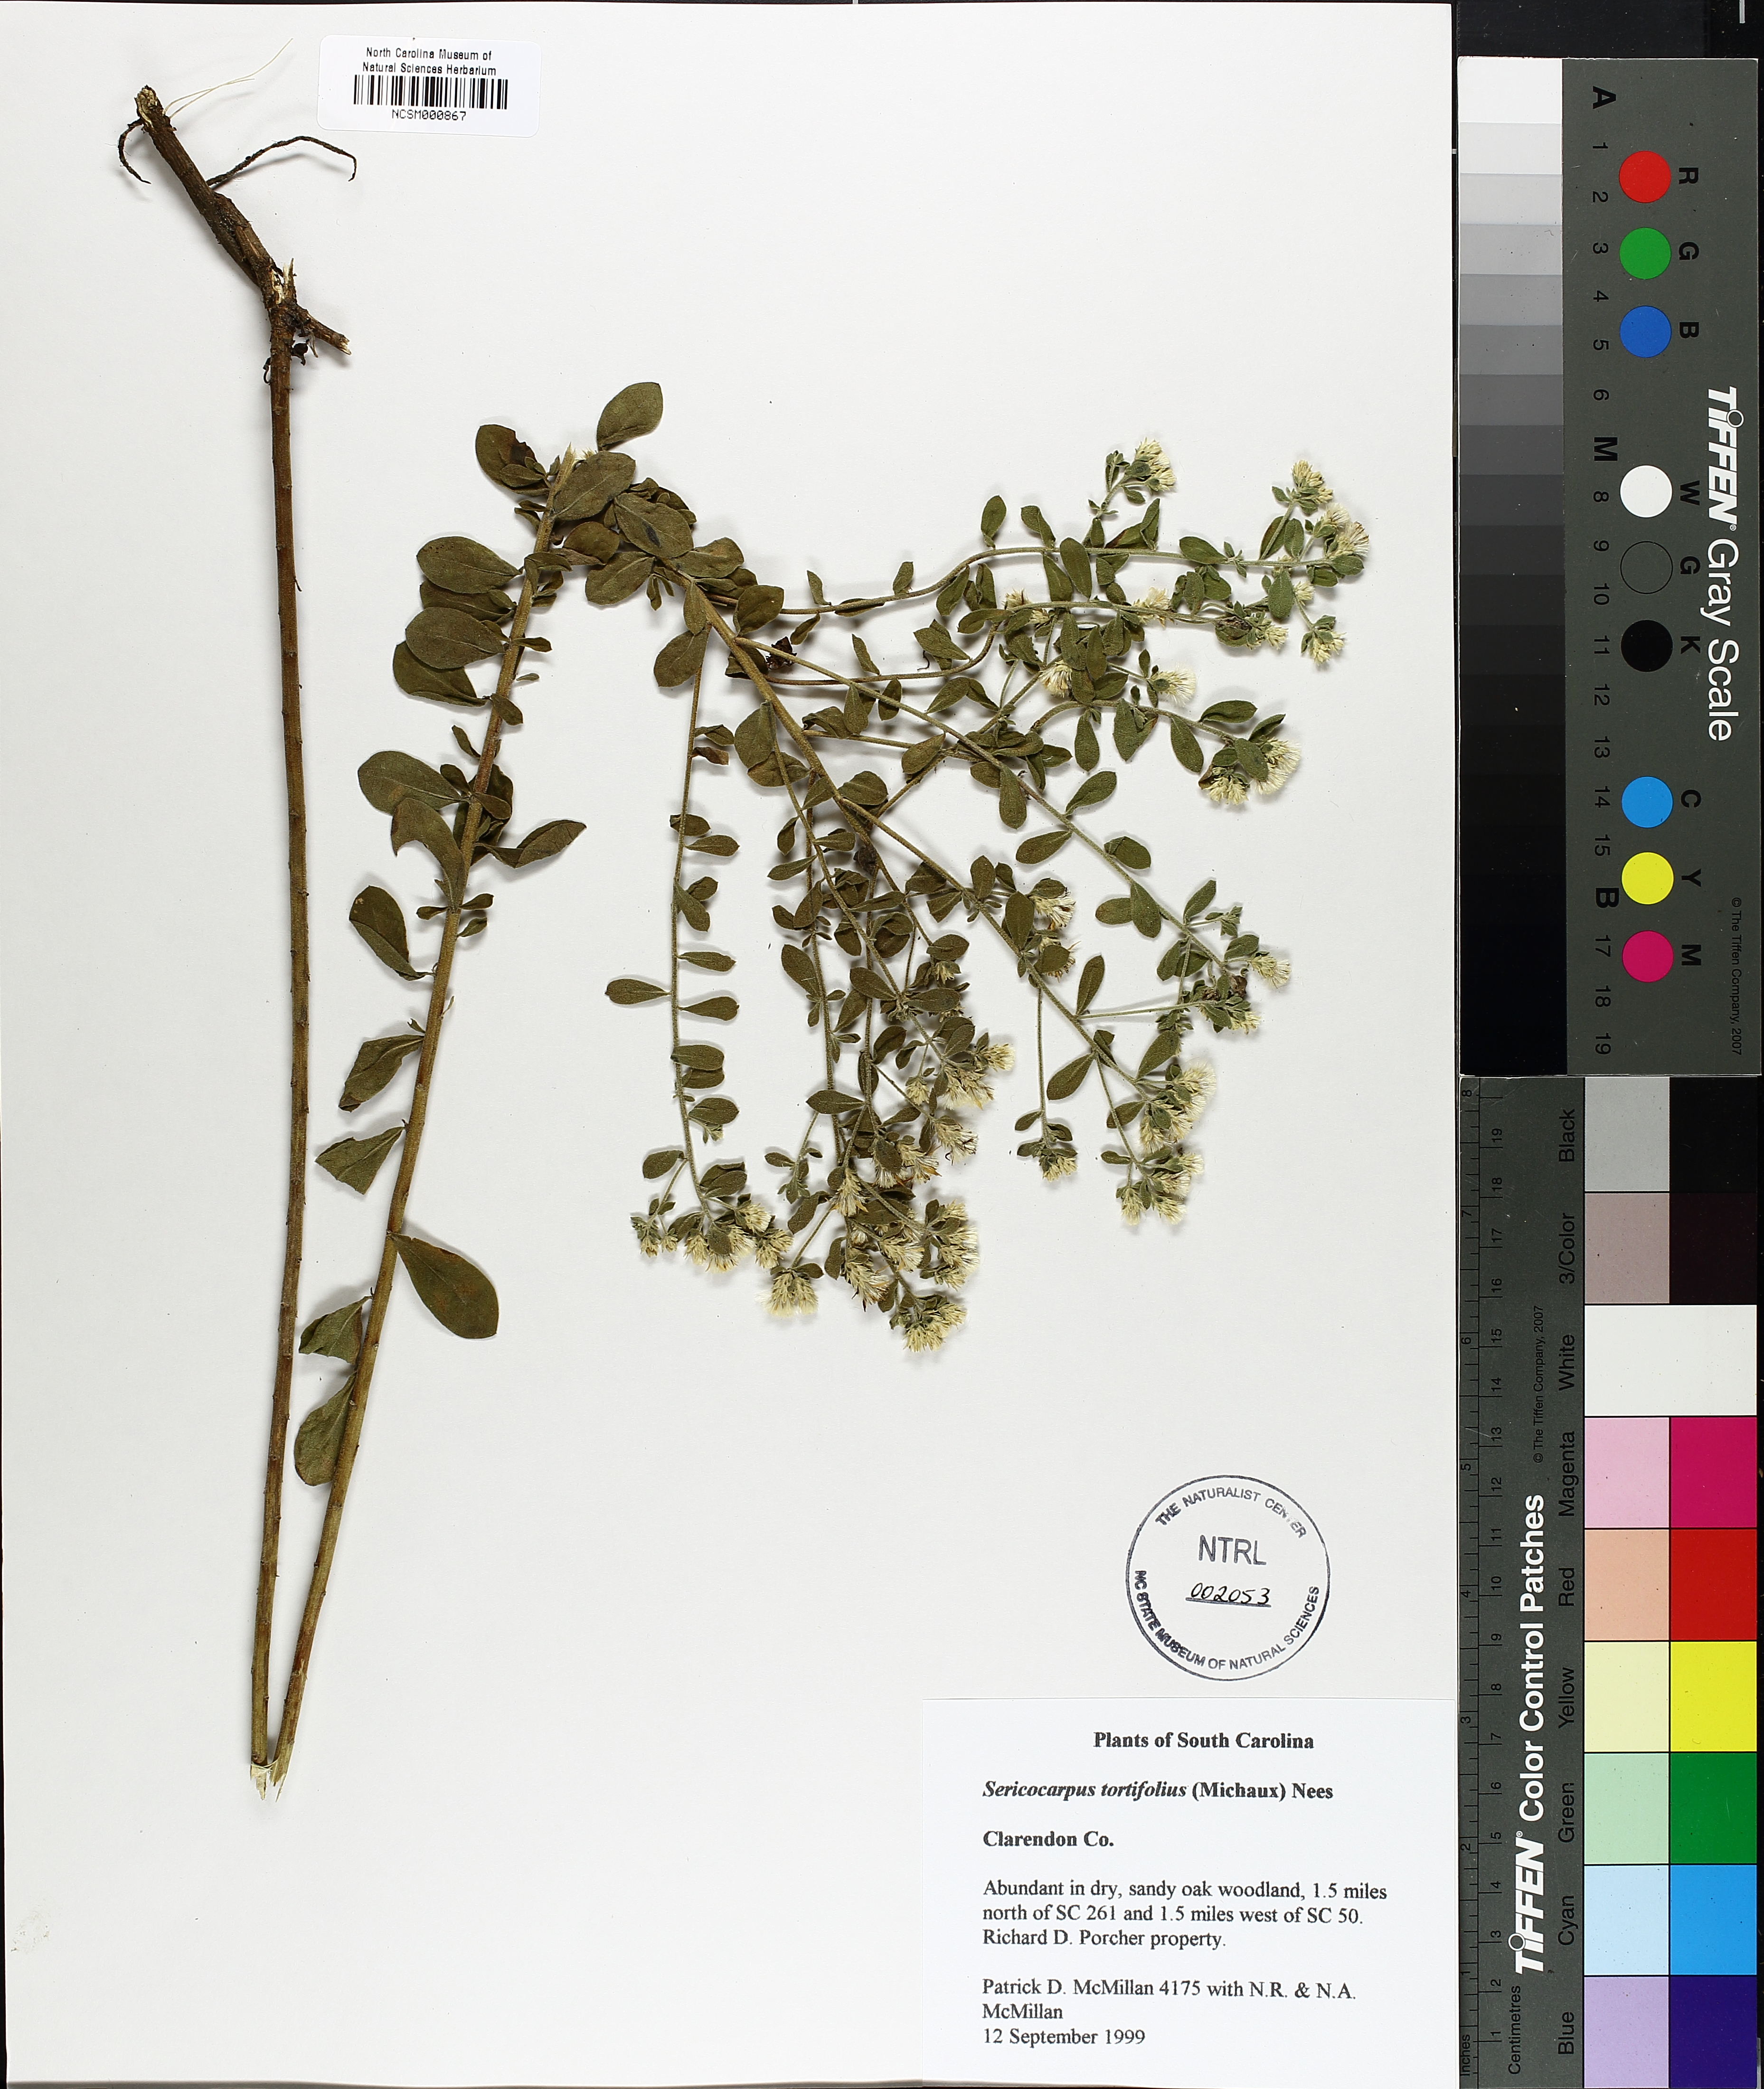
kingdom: Plantae
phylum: Tracheophyta
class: Magnoliopsida
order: Asterales
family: Asteraceae
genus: Sericocarpus
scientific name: Sericocarpus tortifolius
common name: Dixie aster
